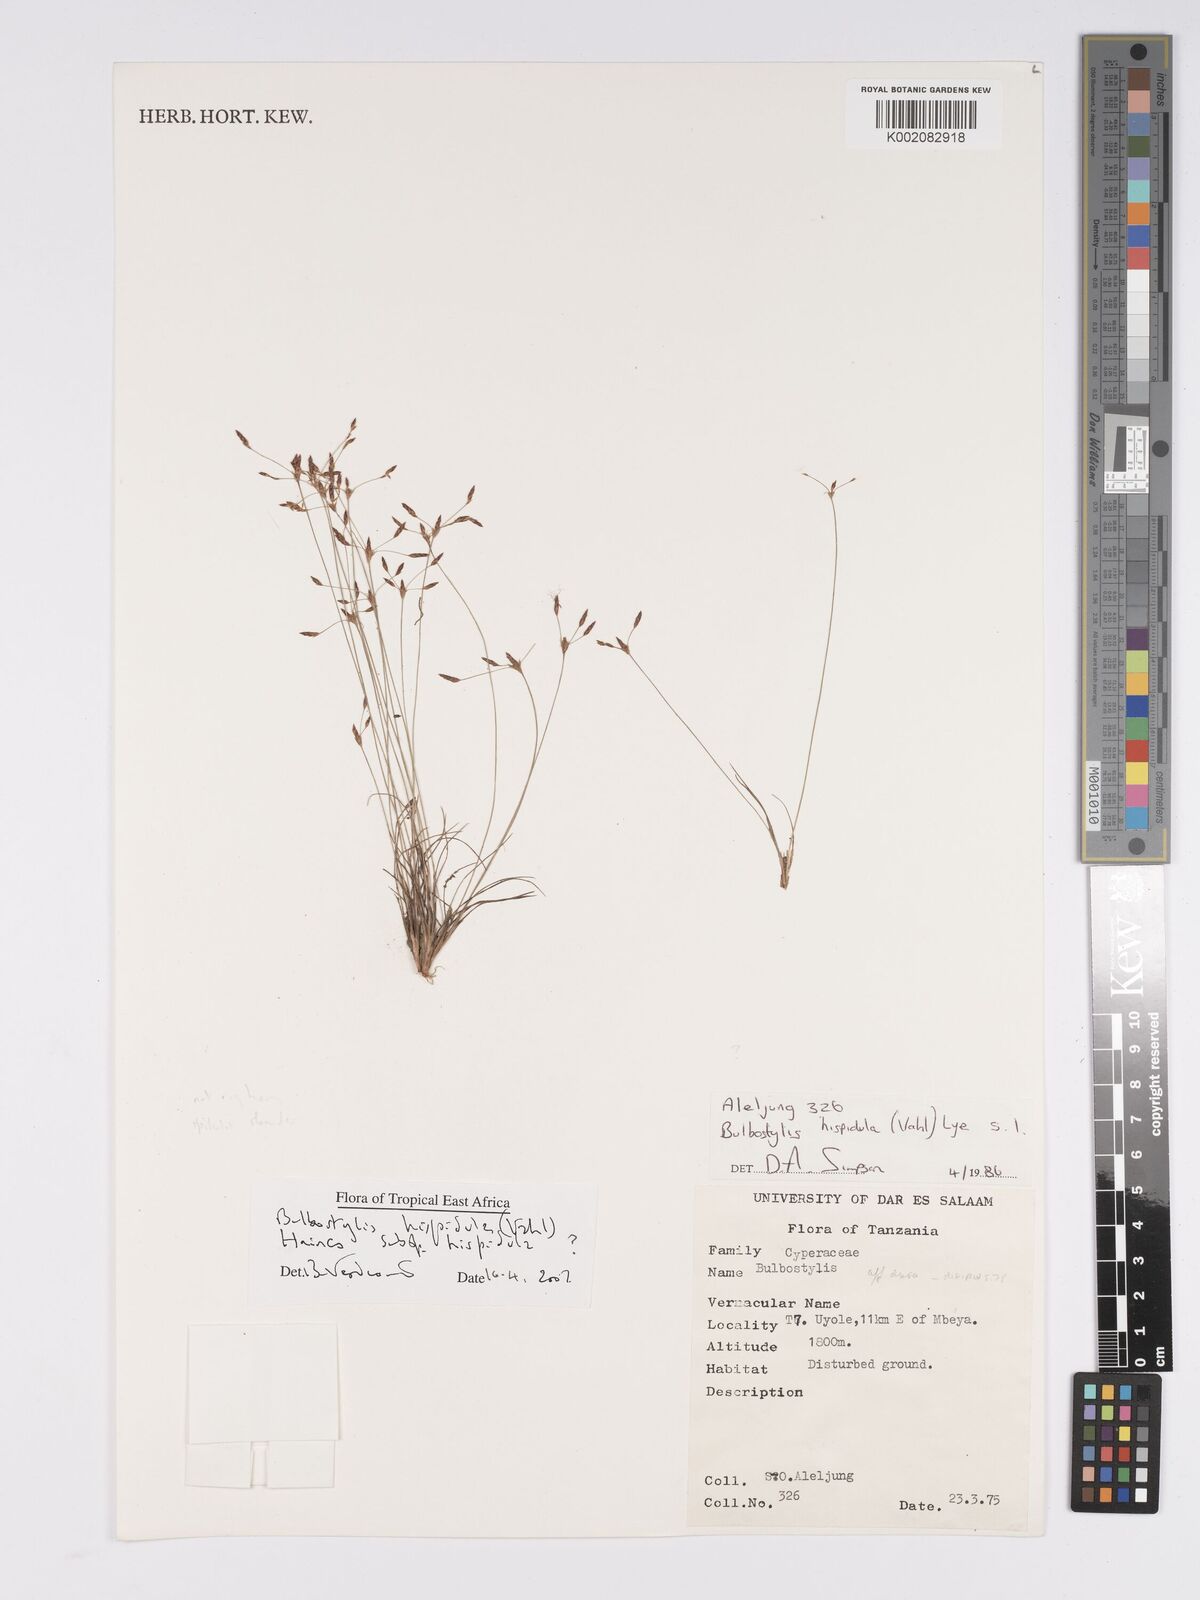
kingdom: Plantae
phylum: Tracheophyta
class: Liliopsida
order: Poales
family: Cyperaceae
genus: Bulbostylis
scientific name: Bulbostylis hispidula
